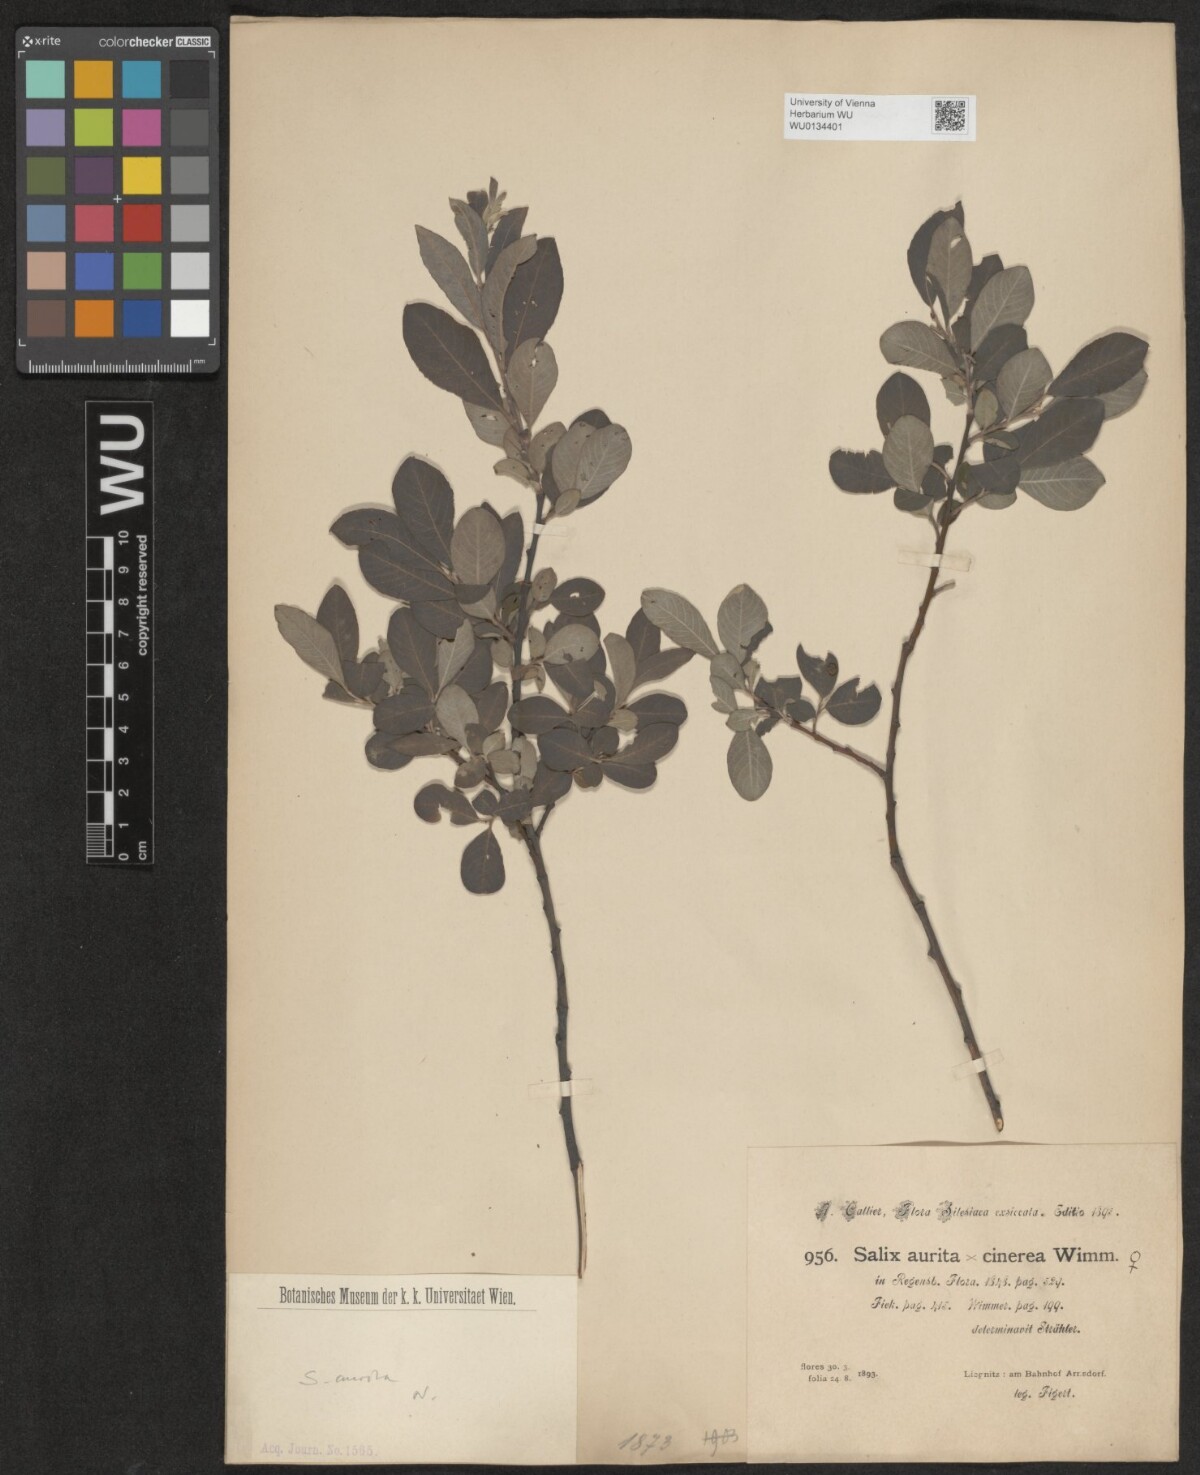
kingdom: Plantae
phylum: Tracheophyta
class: Magnoliopsida
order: Malpighiales
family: Salicaceae
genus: Salix
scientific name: Salix aurita
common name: Eared willow
